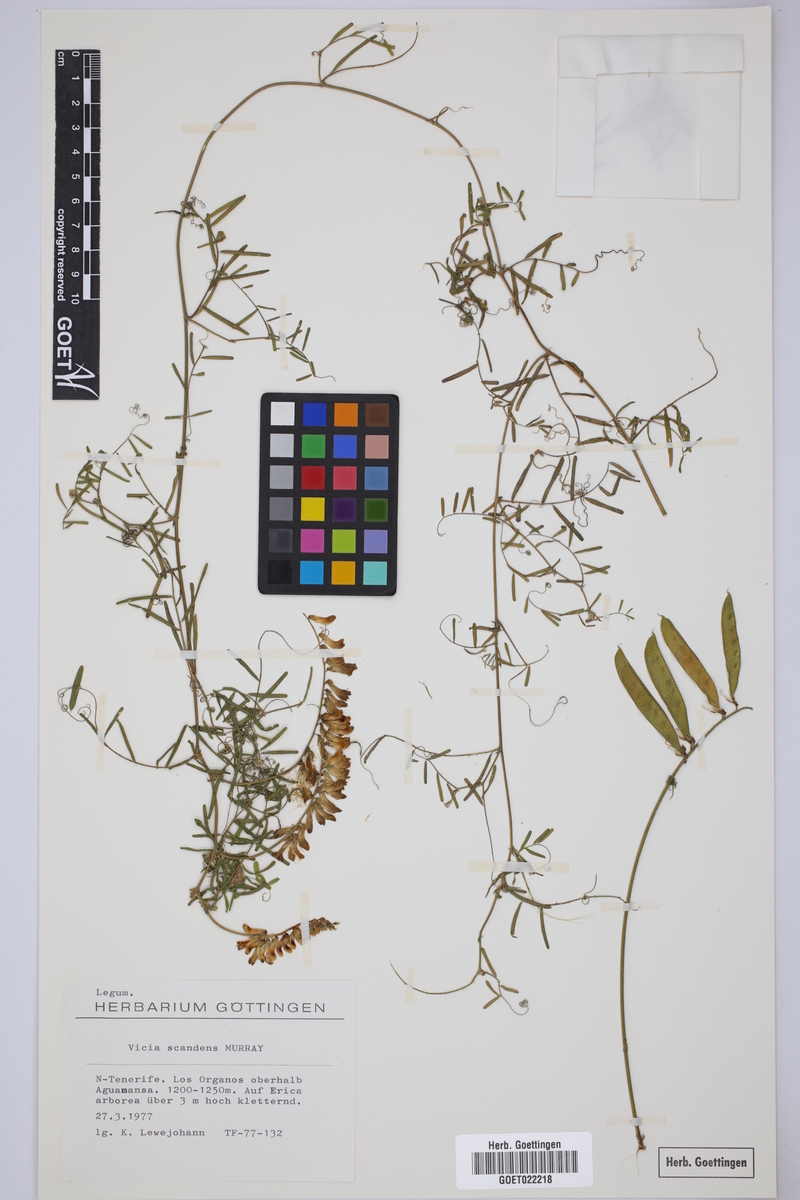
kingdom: Plantae
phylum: Tracheophyta
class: Magnoliopsida
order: Fabales
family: Fabaceae
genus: Vicia
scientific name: Vicia scandens
